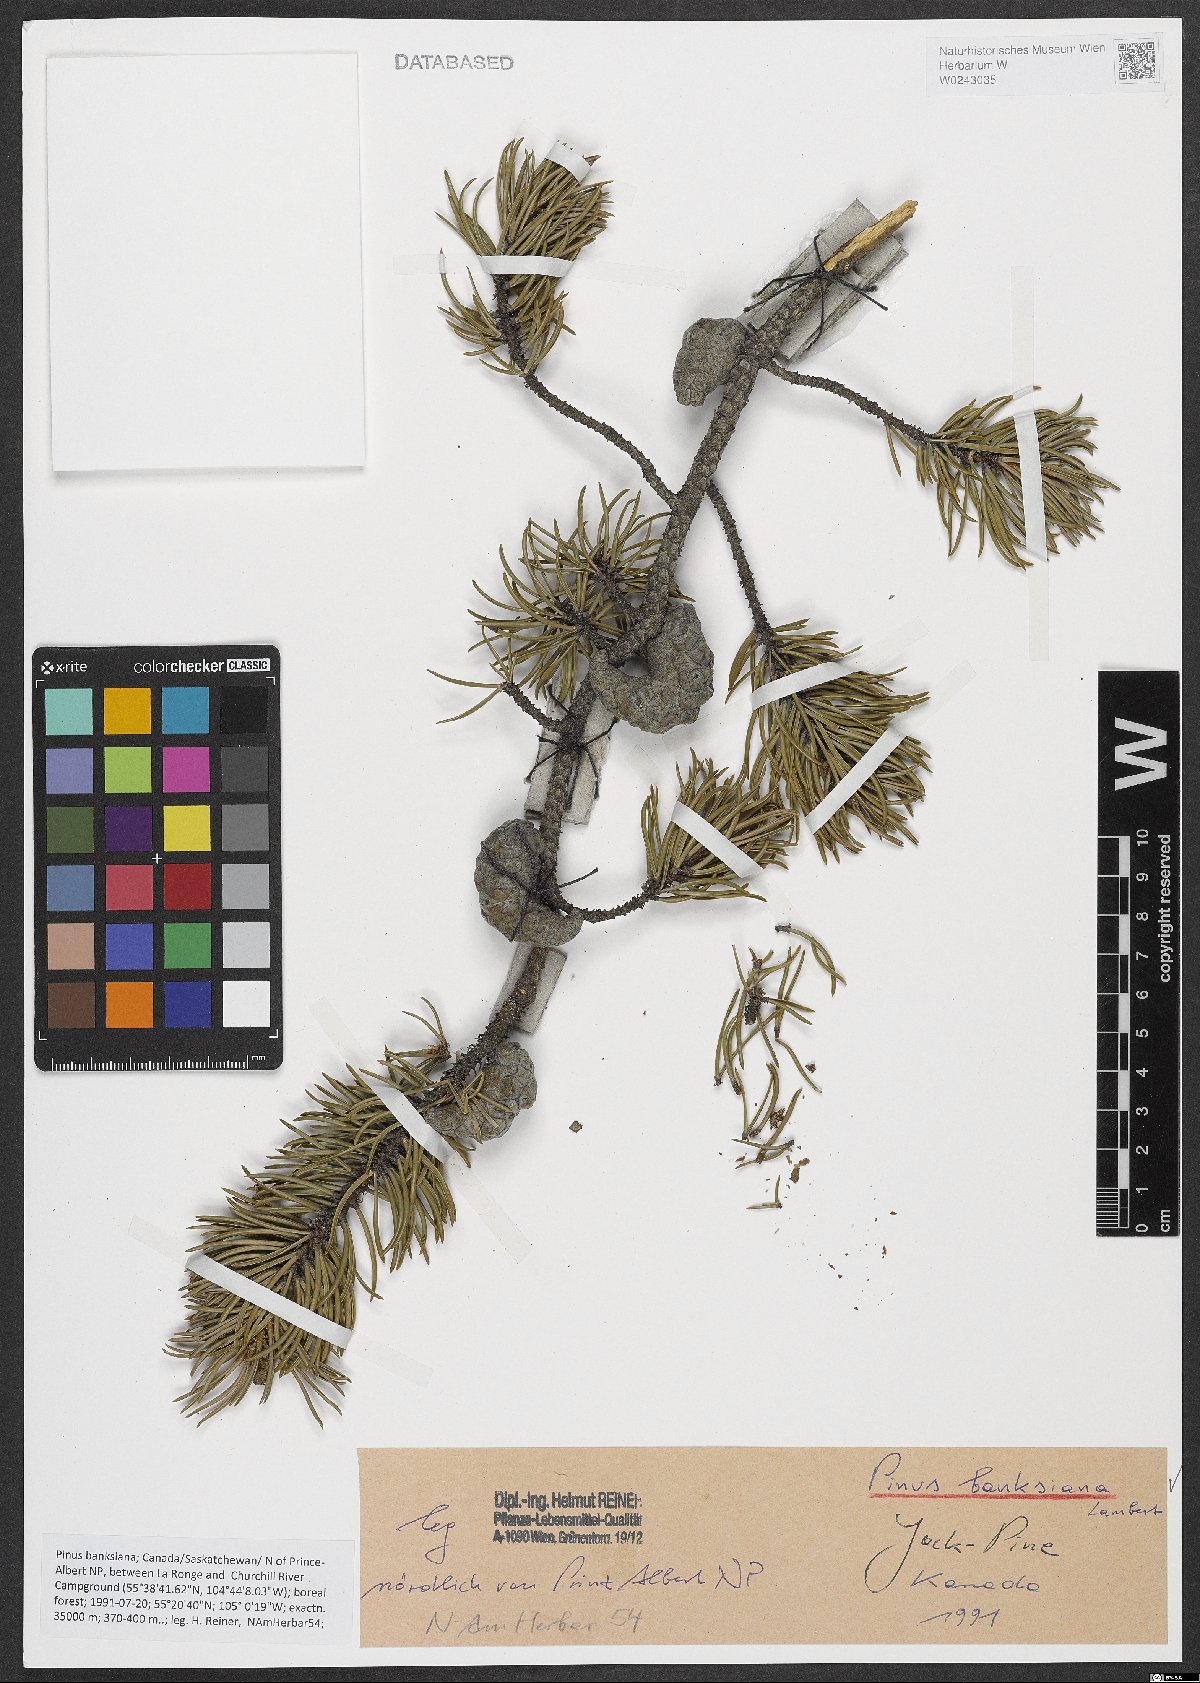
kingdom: Plantae
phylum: Tracheophyta
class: Pinopsida
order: Pinales
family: Pinaceae
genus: Pinus
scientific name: Pinus banksiana
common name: Jack pine
